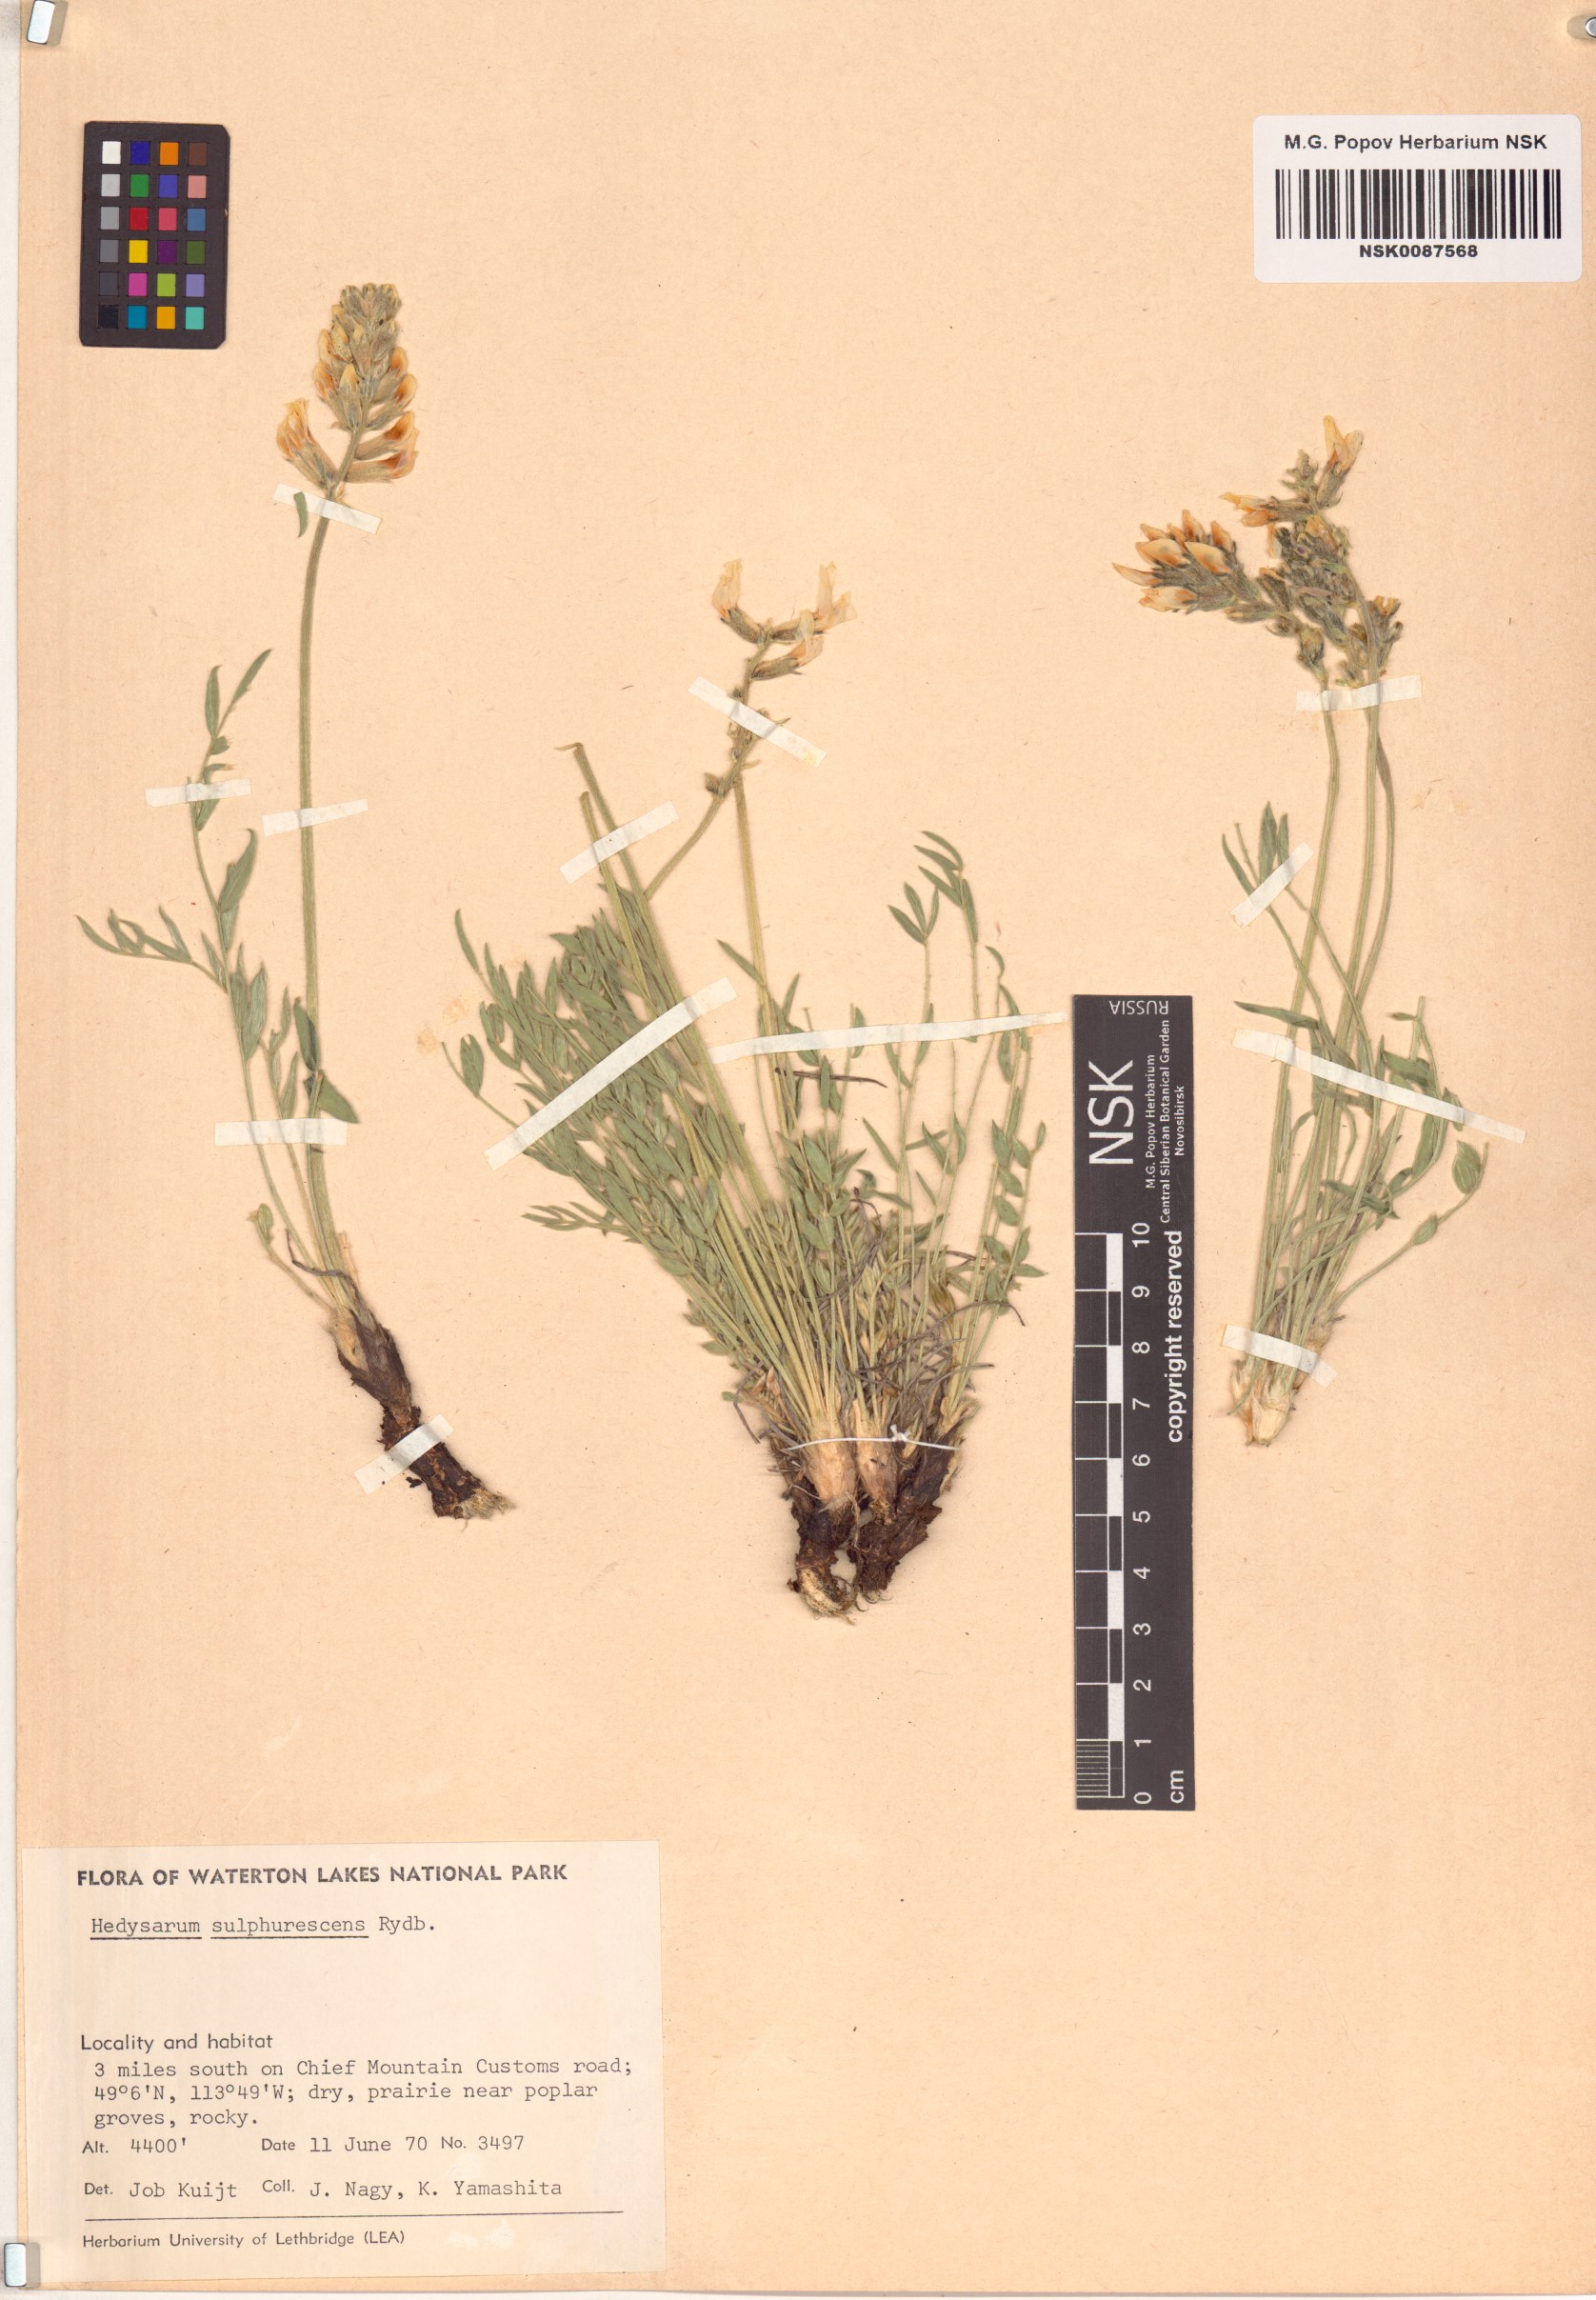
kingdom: Plantae
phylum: Tracheophyta
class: Magnoliopsida
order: Fabales
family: Fabaceae
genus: Hedysarum
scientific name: Hedysarum sulphurescens
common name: Sulphur hedysarum
